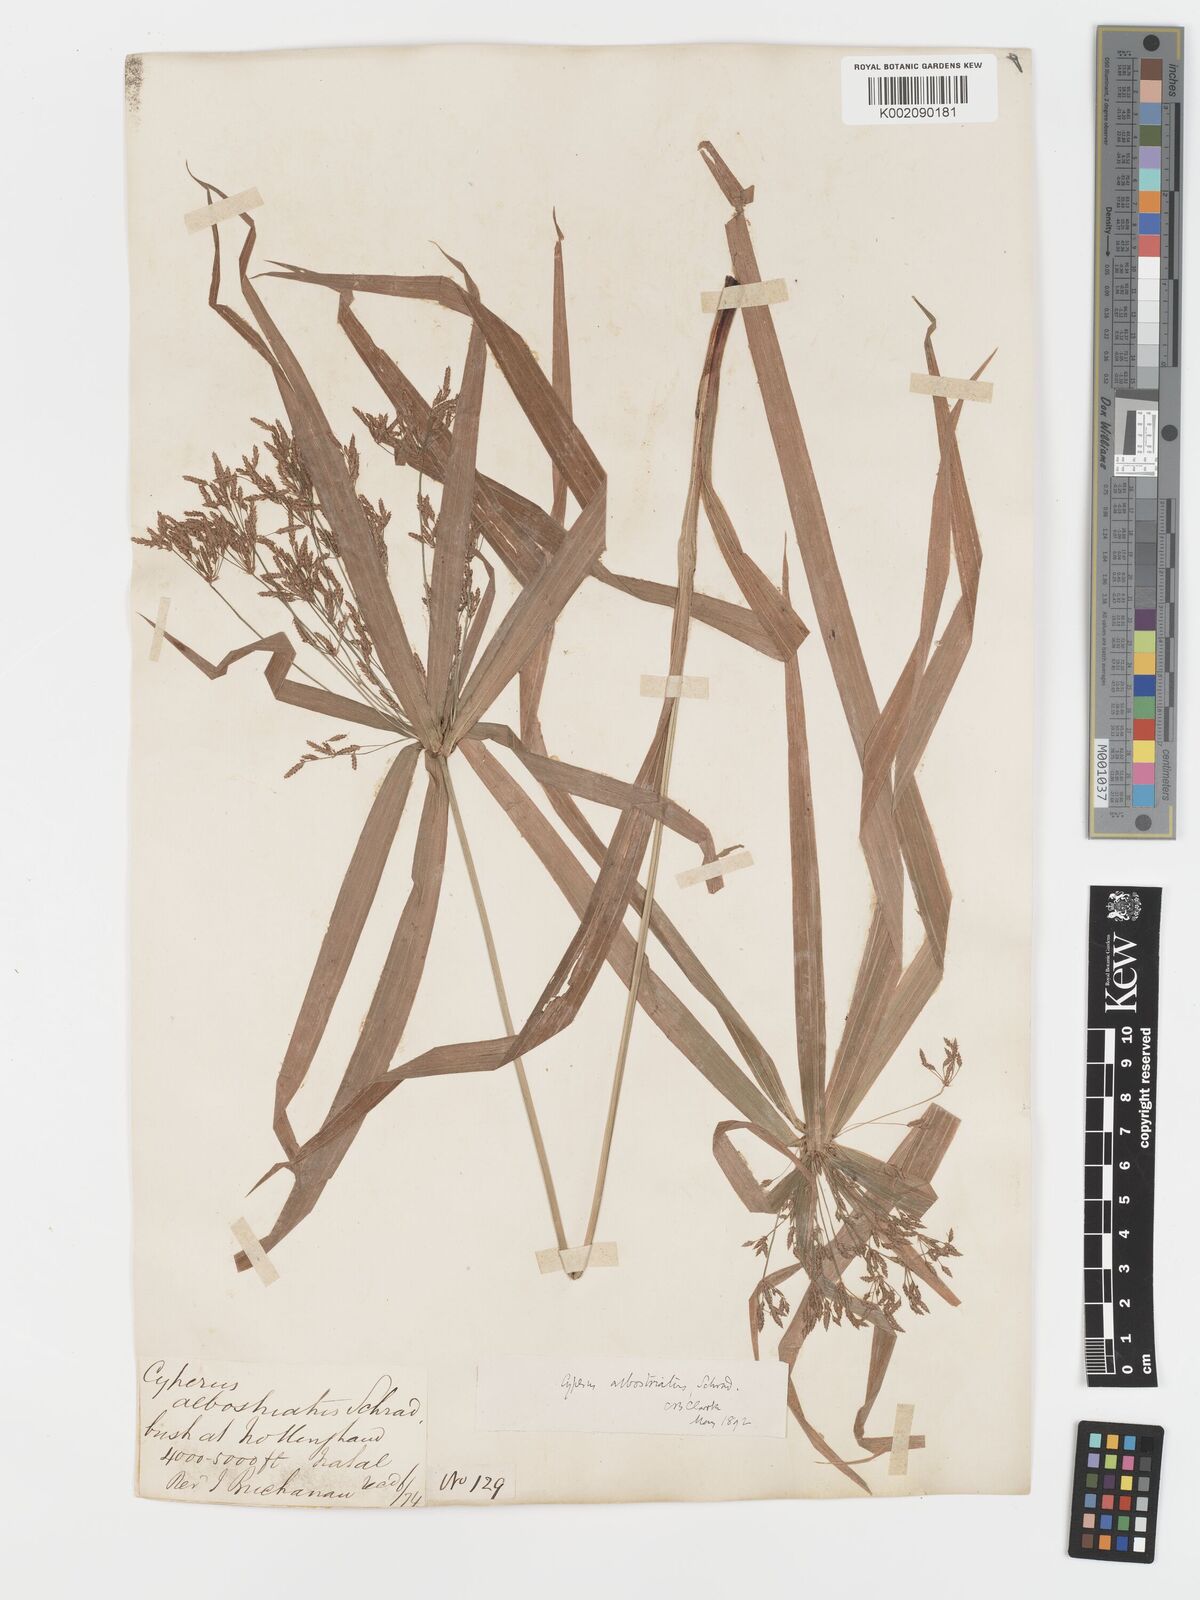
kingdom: Plantae
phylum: Tracheophyta
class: Liliopsida
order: Poales
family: Cyperaceae
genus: Cyperus
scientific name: Cyperus albostriatus
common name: Dwarf umbrella-grass
